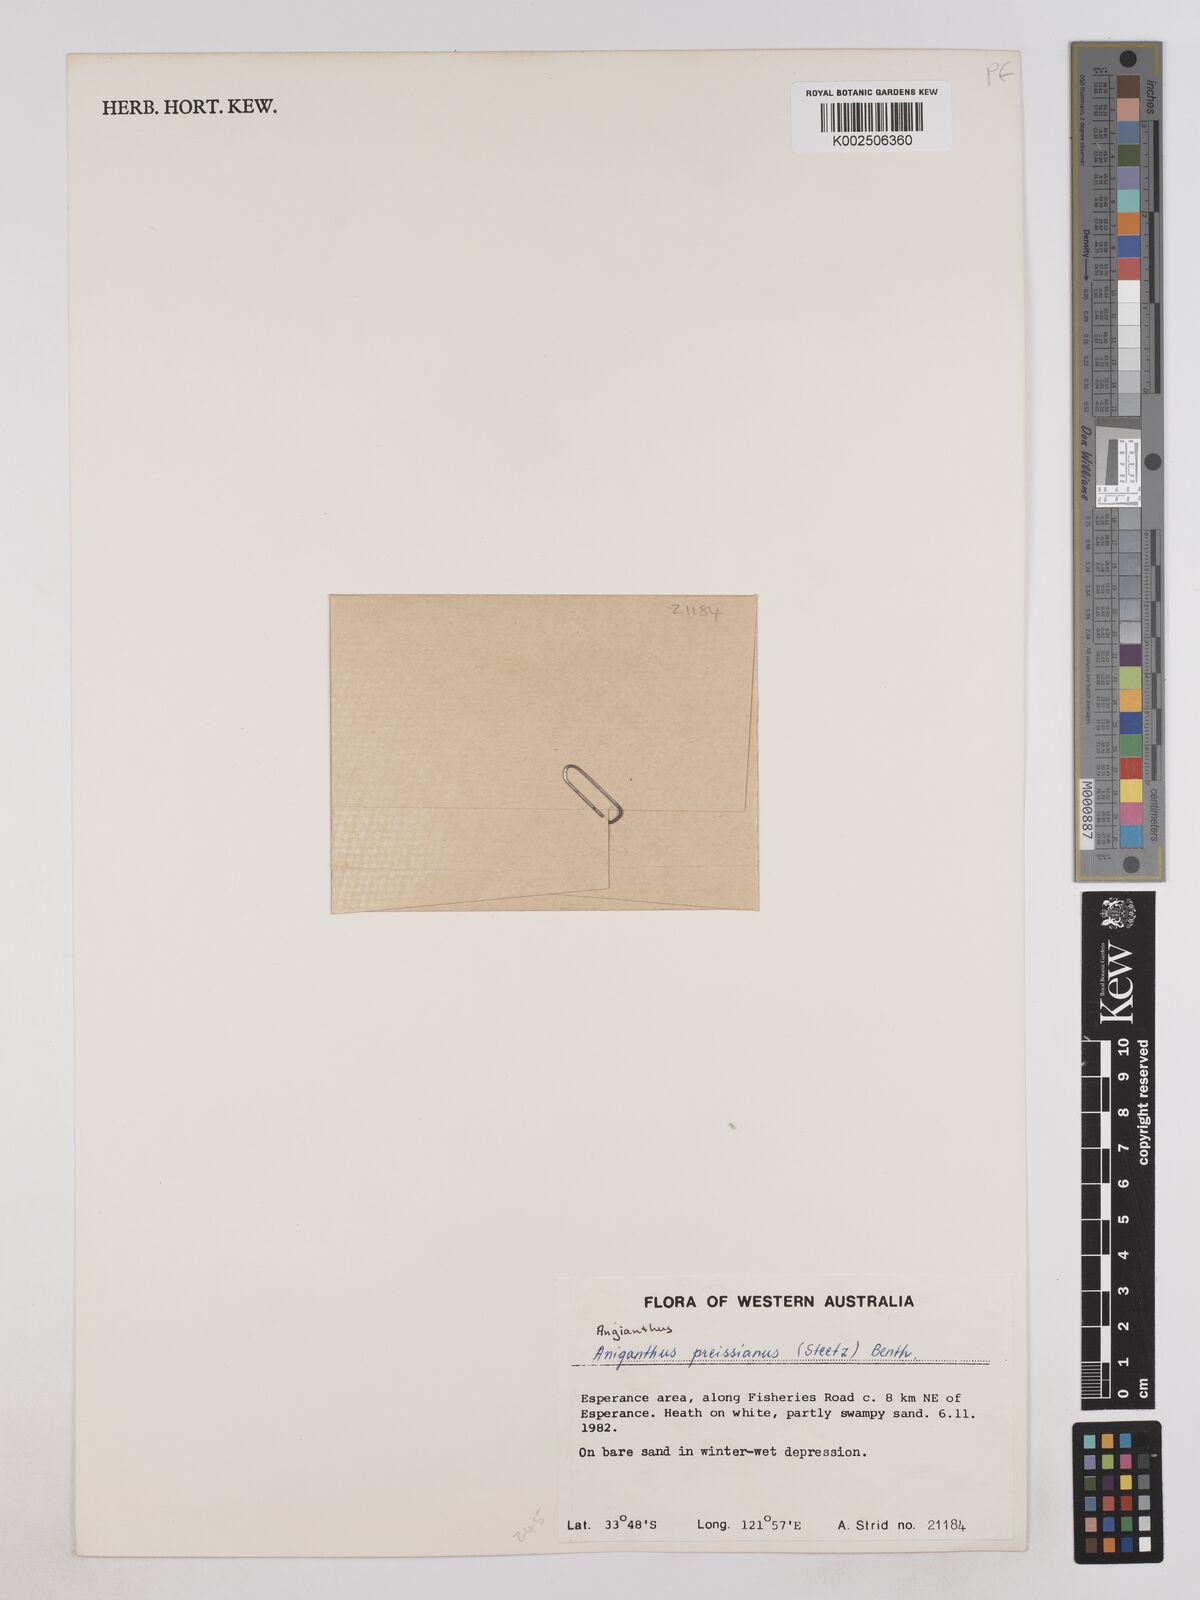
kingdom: Plantae
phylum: Tracheophyta
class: Magnoliopsida
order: Asterales
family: Asteraceae
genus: Angianthus
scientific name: Angianthus preissianus
